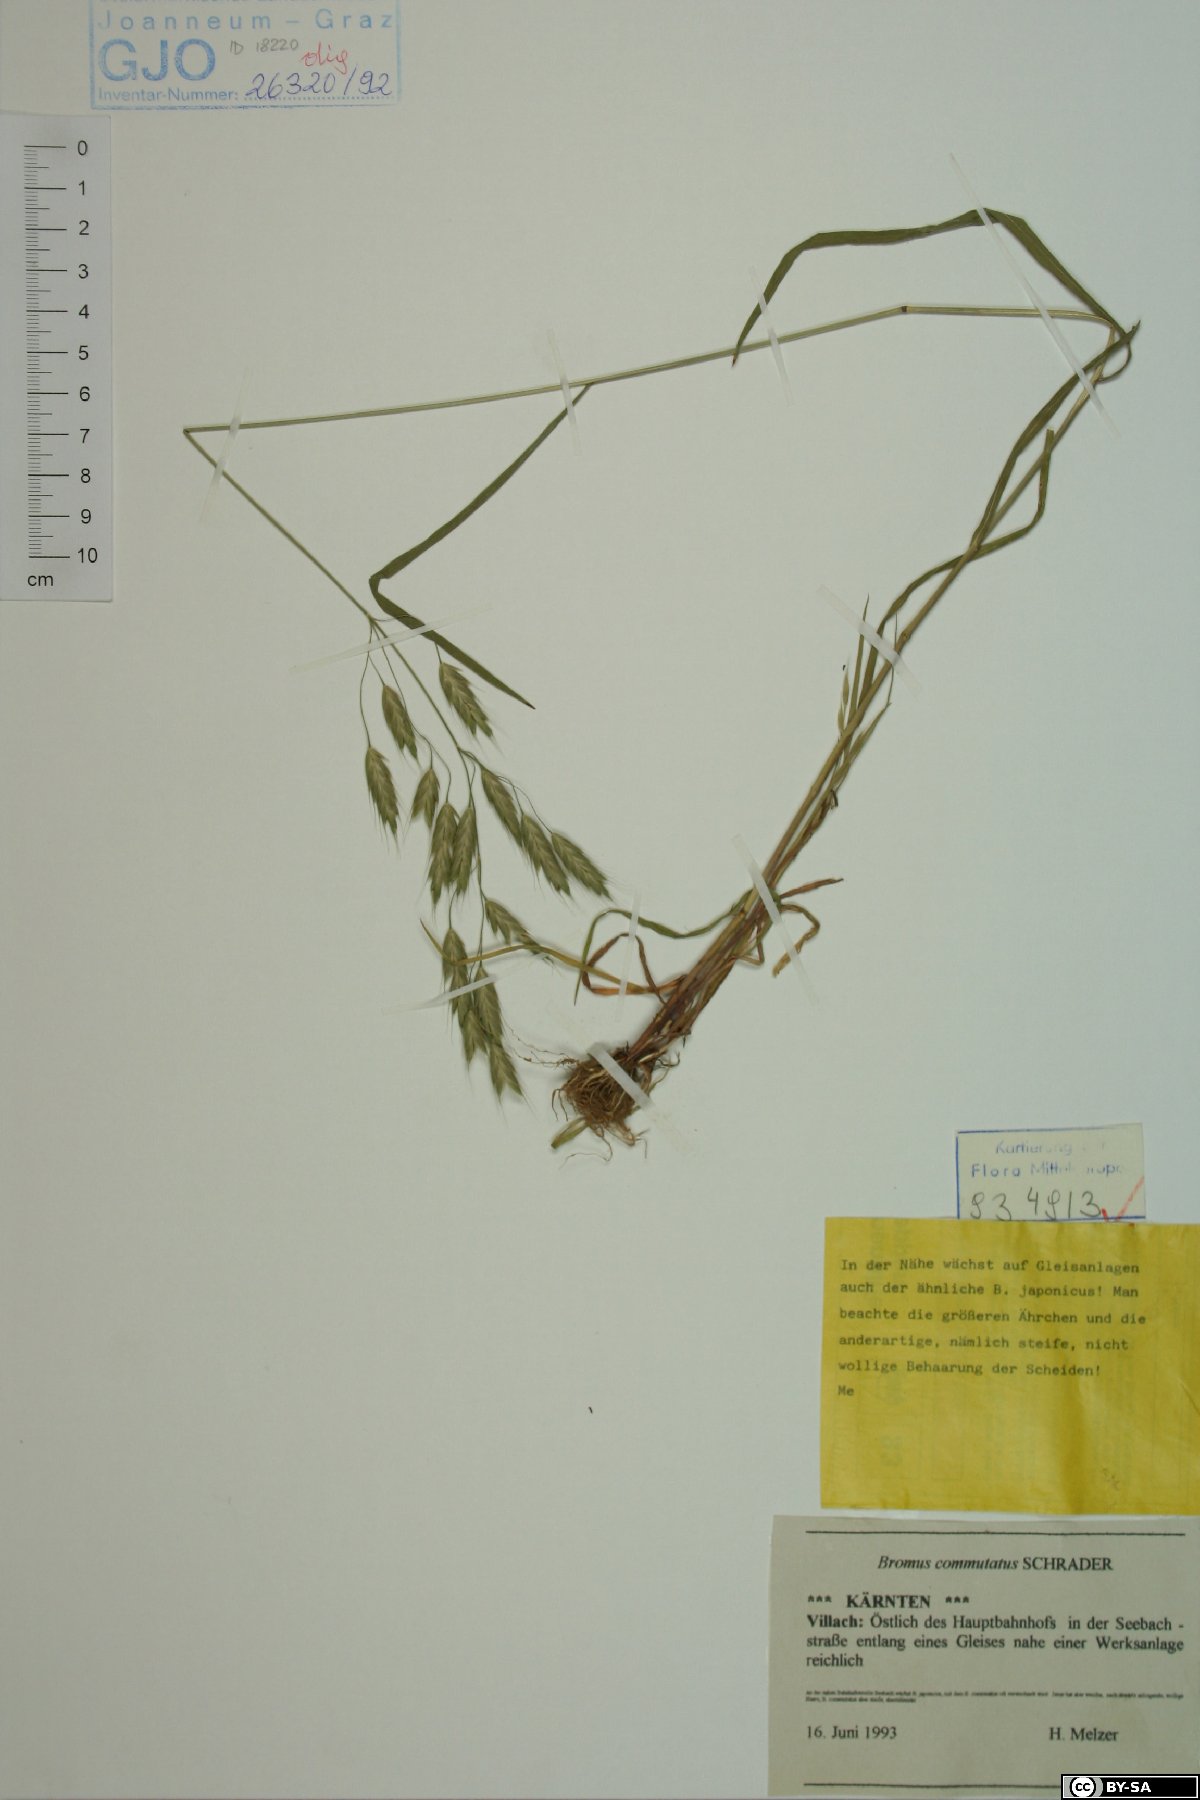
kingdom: Plantae
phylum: Tracheophyta
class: Liliopsida
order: Poales
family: Poaceae
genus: Bromus
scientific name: Bromus commutatus
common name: Meadow brome
